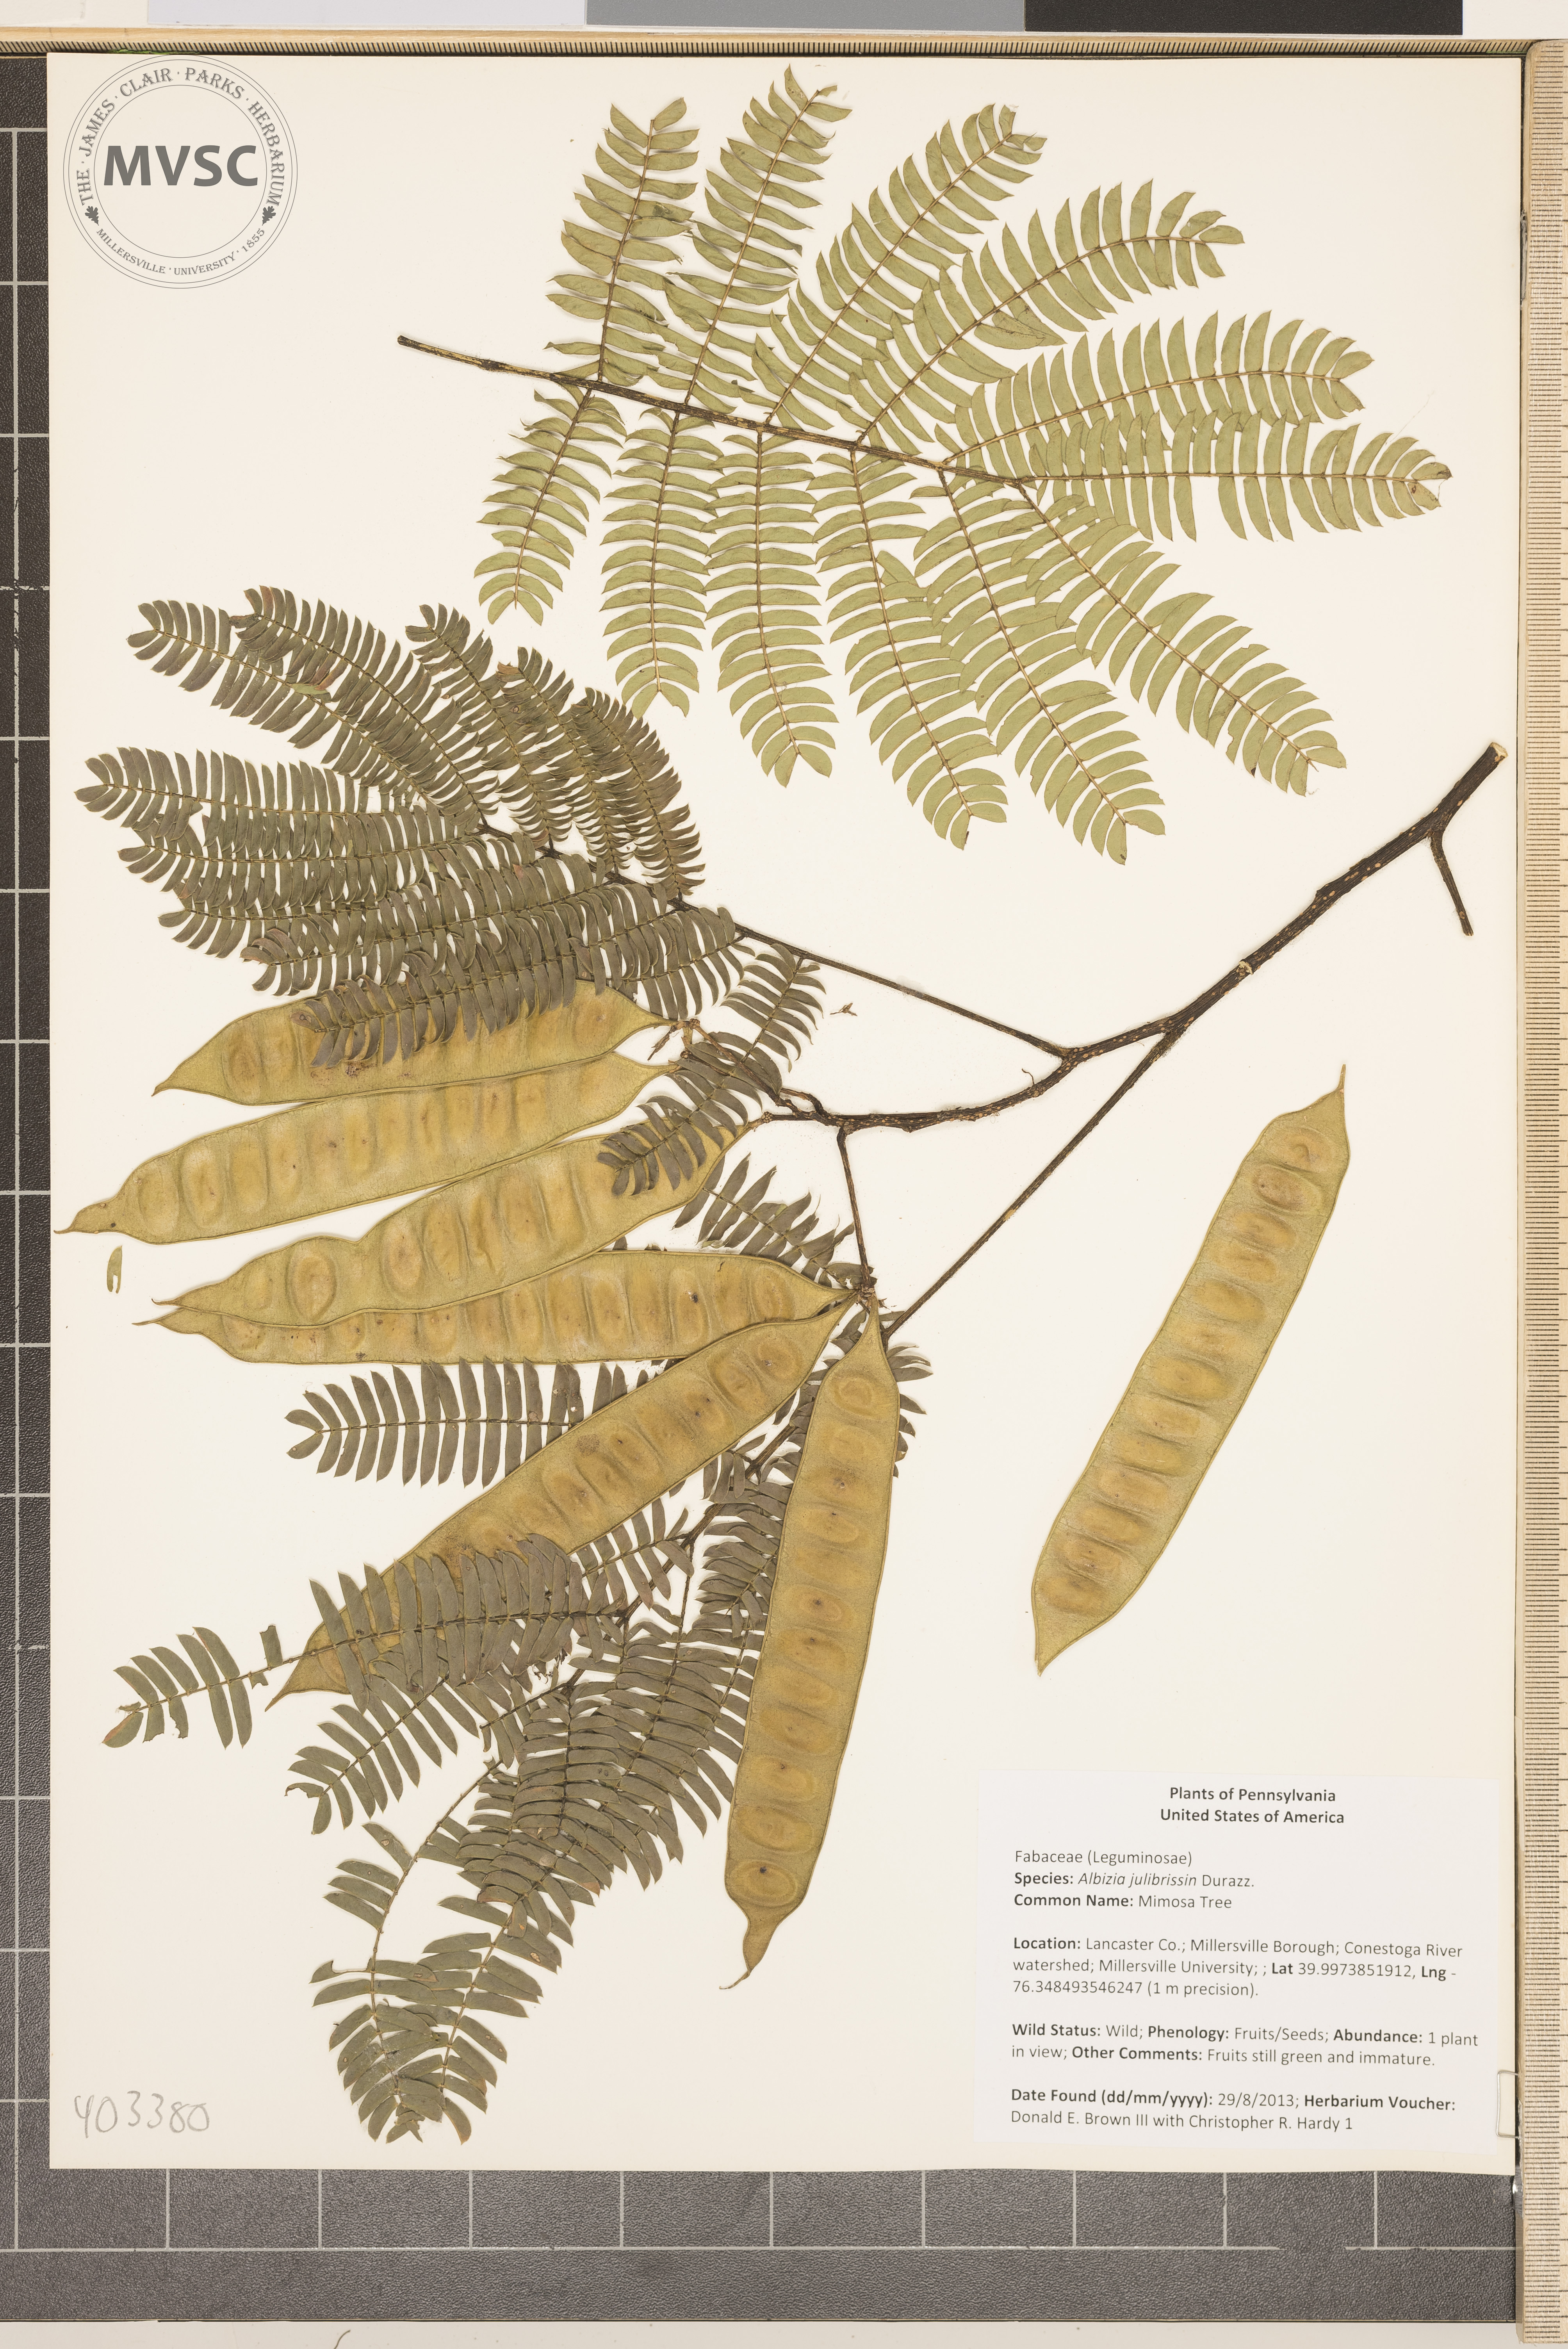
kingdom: Plantae
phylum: Tracheophyta
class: Magnoliopsida
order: Fabales
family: Fabaceae
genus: Albizia
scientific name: Albizia julibrissin
